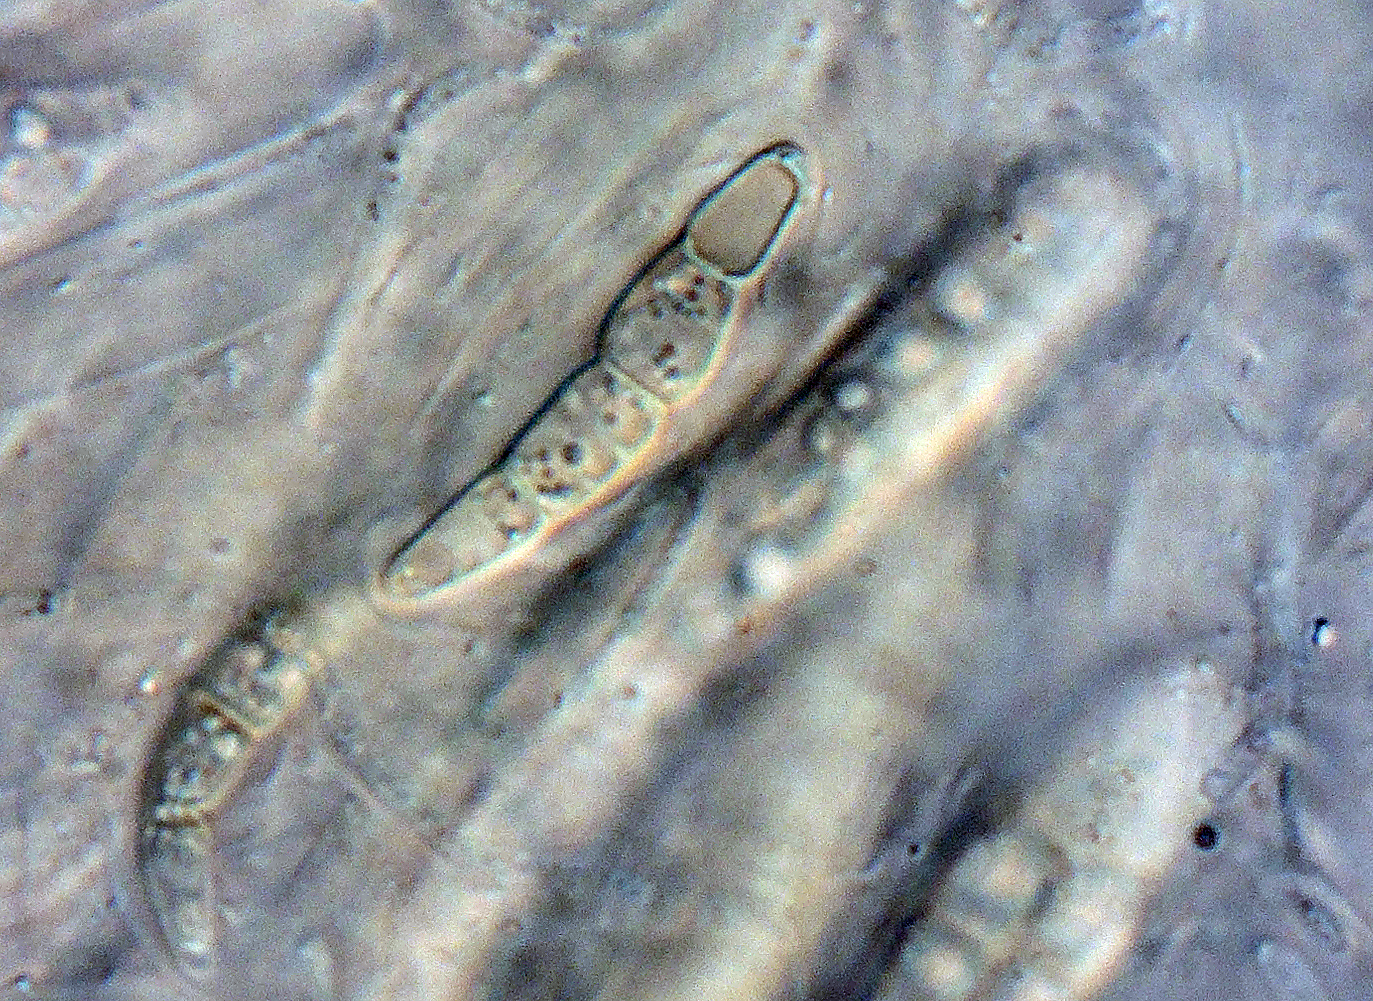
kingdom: Fungi
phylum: Ascomycota
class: Dothideomycetes
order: Pleosporales
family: Phaeosphaeriaceae
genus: Phaeosphaeria
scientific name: Phaeosphaeria
